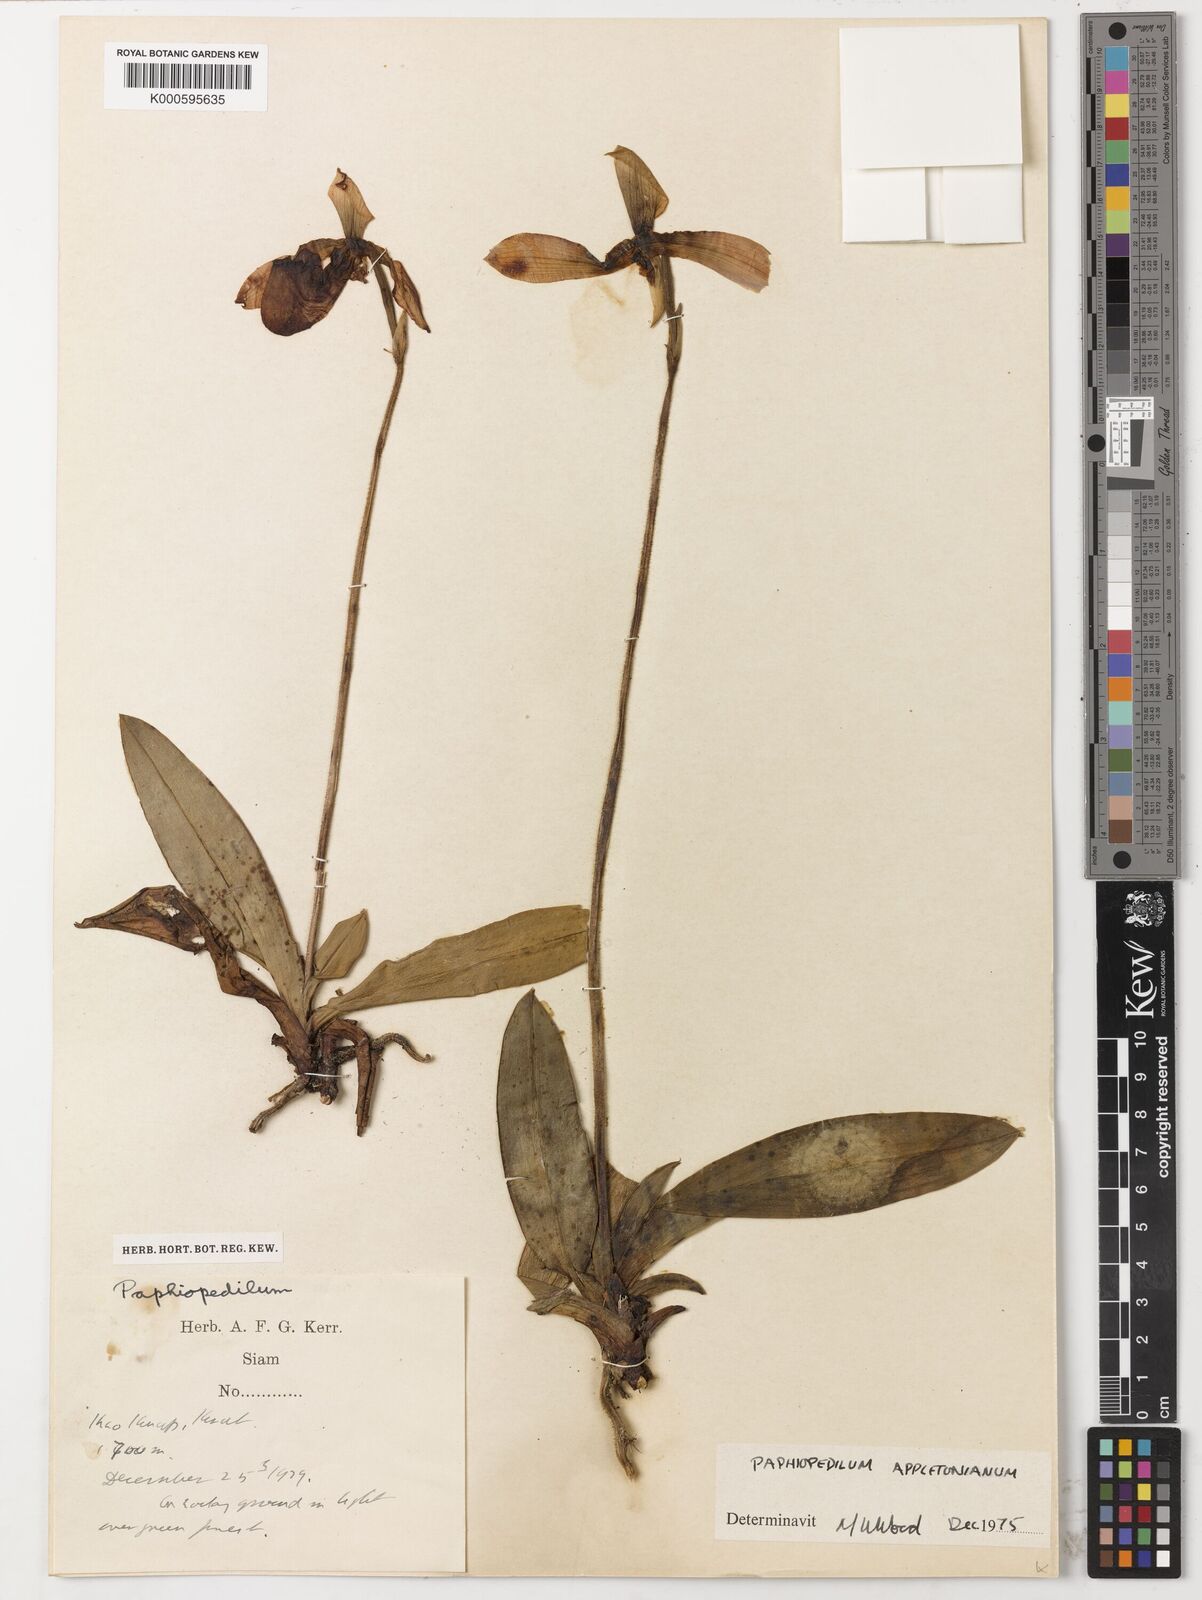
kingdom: Plantae
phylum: Tracheophyta
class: Liliopsida
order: Asparagales
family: Orchidaceae
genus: Paphiopedilum
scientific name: Paphiopedilum appletonianum
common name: Appleton's paphiopedilum
